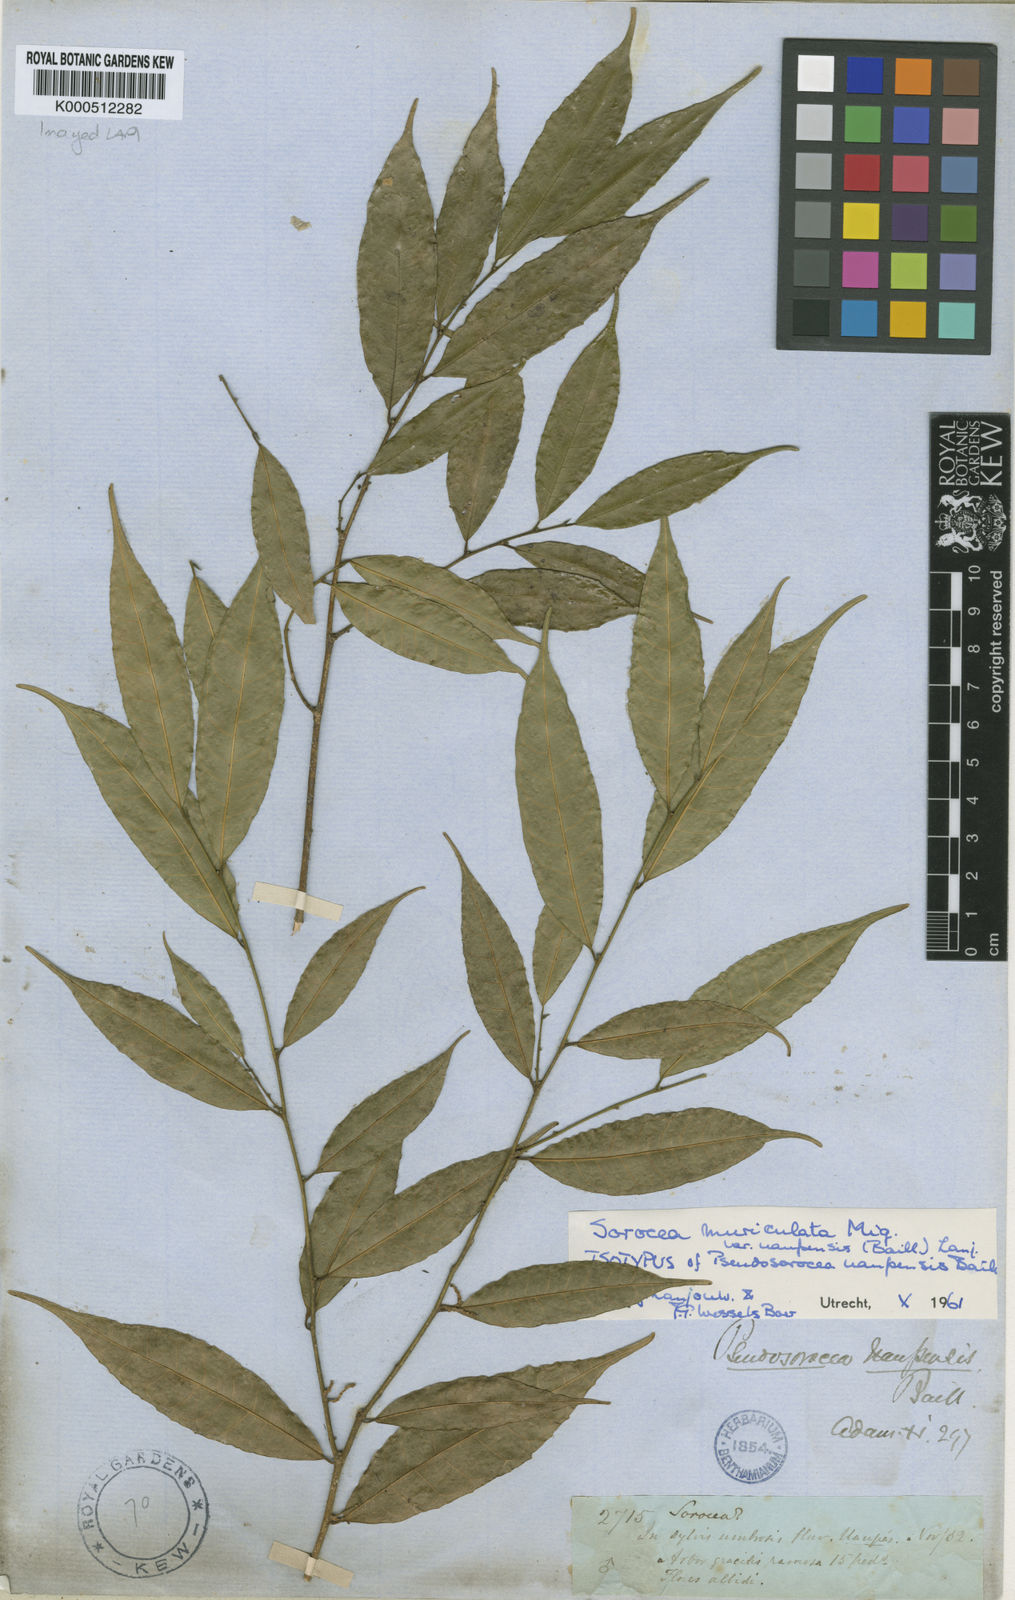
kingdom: Plantae
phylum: Tracheophyta
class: Magnoliopsida
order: Rosales
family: Moraceae
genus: Sorocea
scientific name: Sorocea muriculata
